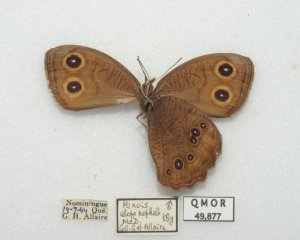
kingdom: Animalia
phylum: Arthropoda
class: Insecta
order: Lepidoptera
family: Nymphalidae
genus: Cercyonis
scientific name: Cercyonis pegala
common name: Common Wood-Nymph
